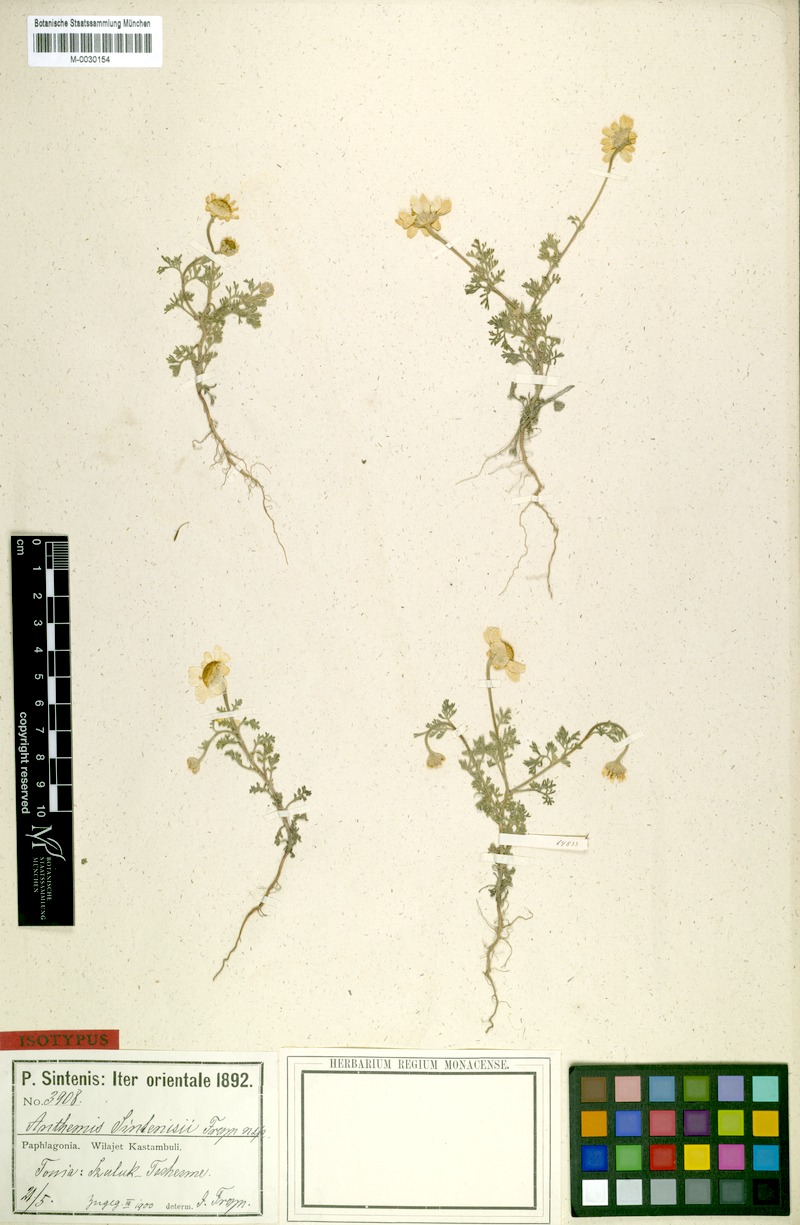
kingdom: Plantae
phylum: Tracheophyta
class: Magnoliopsida
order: Asterales
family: Asteraceae
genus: Anthemis
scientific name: Anthemis sintenisii
